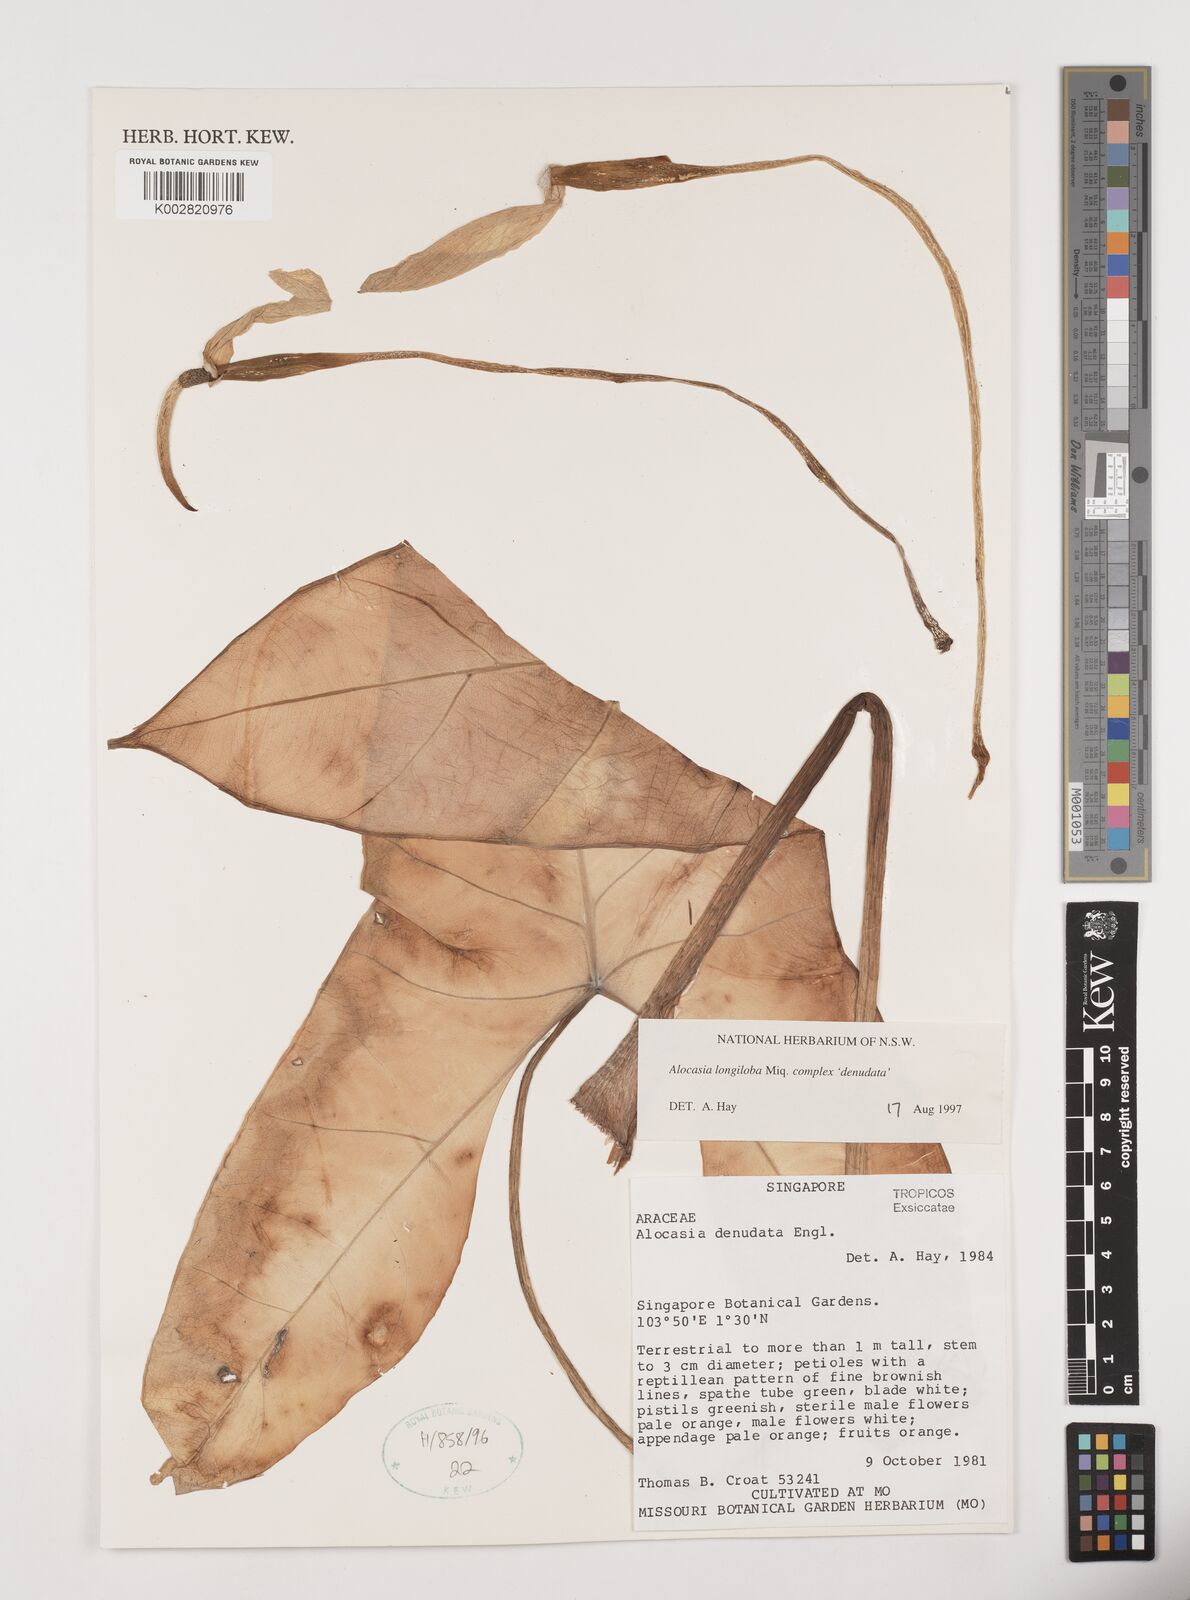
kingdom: Plantae
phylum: Tracheophyta
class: Liliopsida
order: Alismatales
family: Araceae
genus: Alocasia
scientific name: Alocasia longiloba
